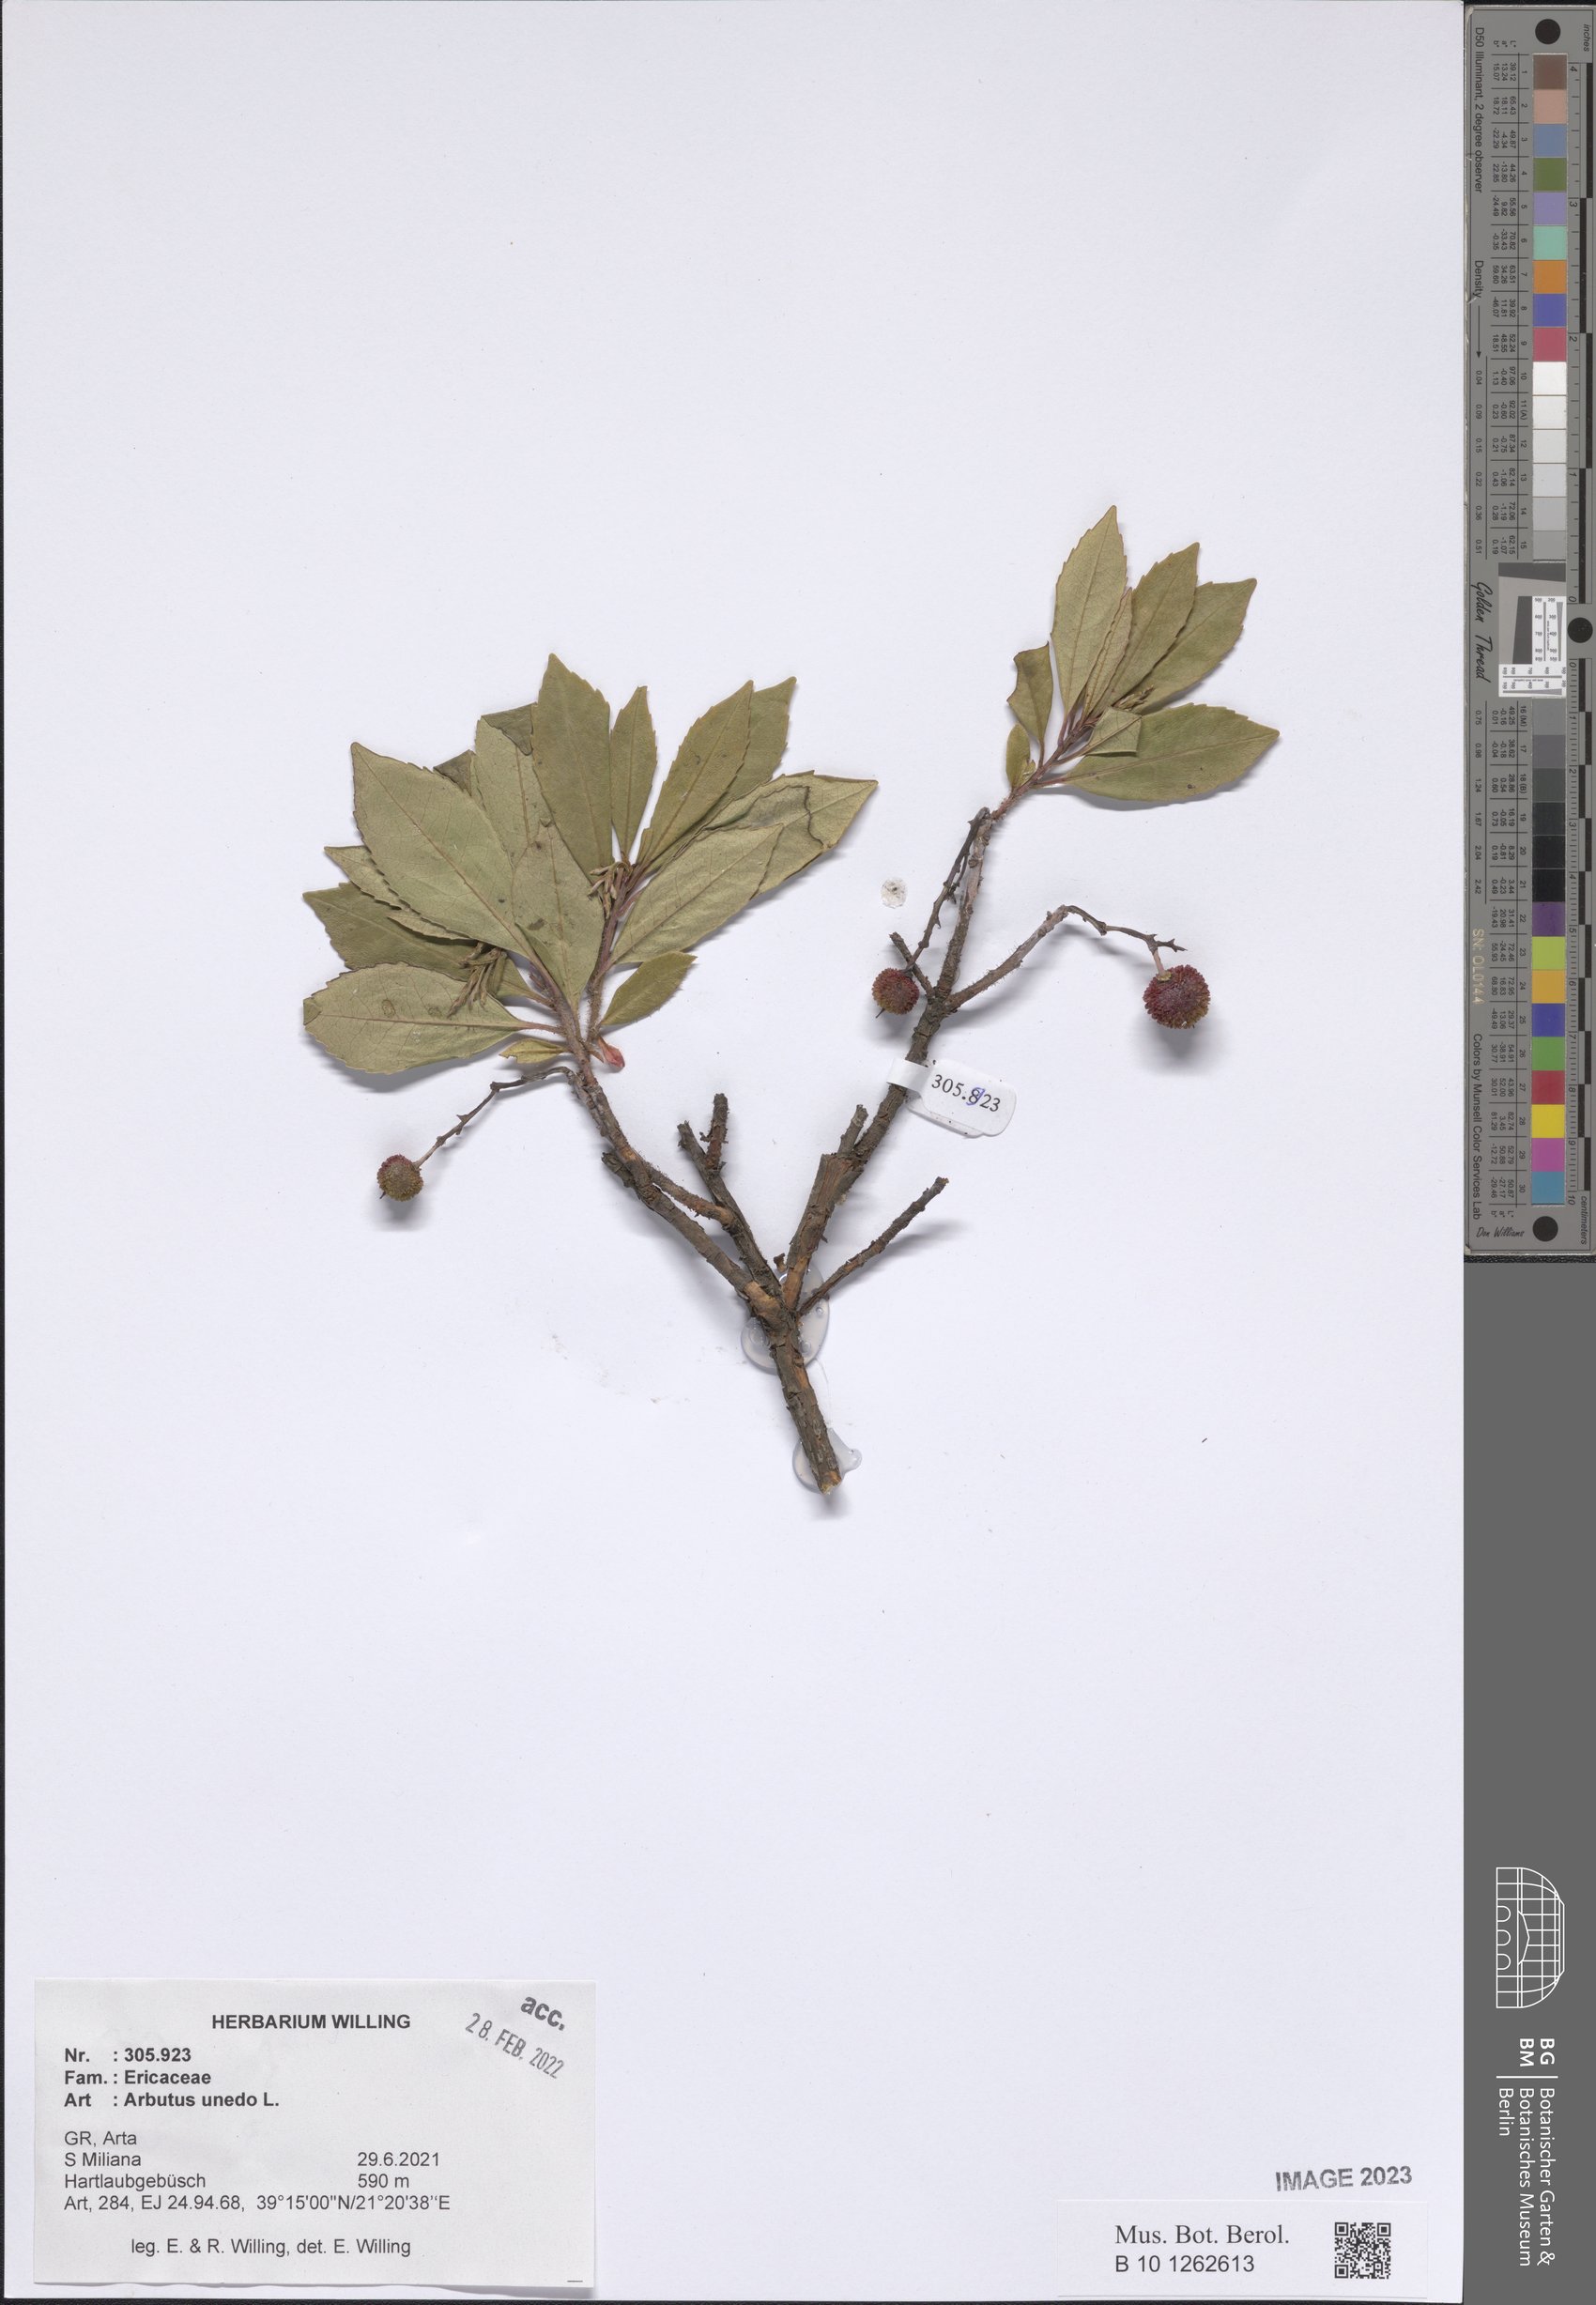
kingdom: Plantae
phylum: Tracheophyta
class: Magnoliopsida
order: Ericales
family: Ericaceae
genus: Arbutus
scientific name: Arbutus unedo
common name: Strawberry-tree
